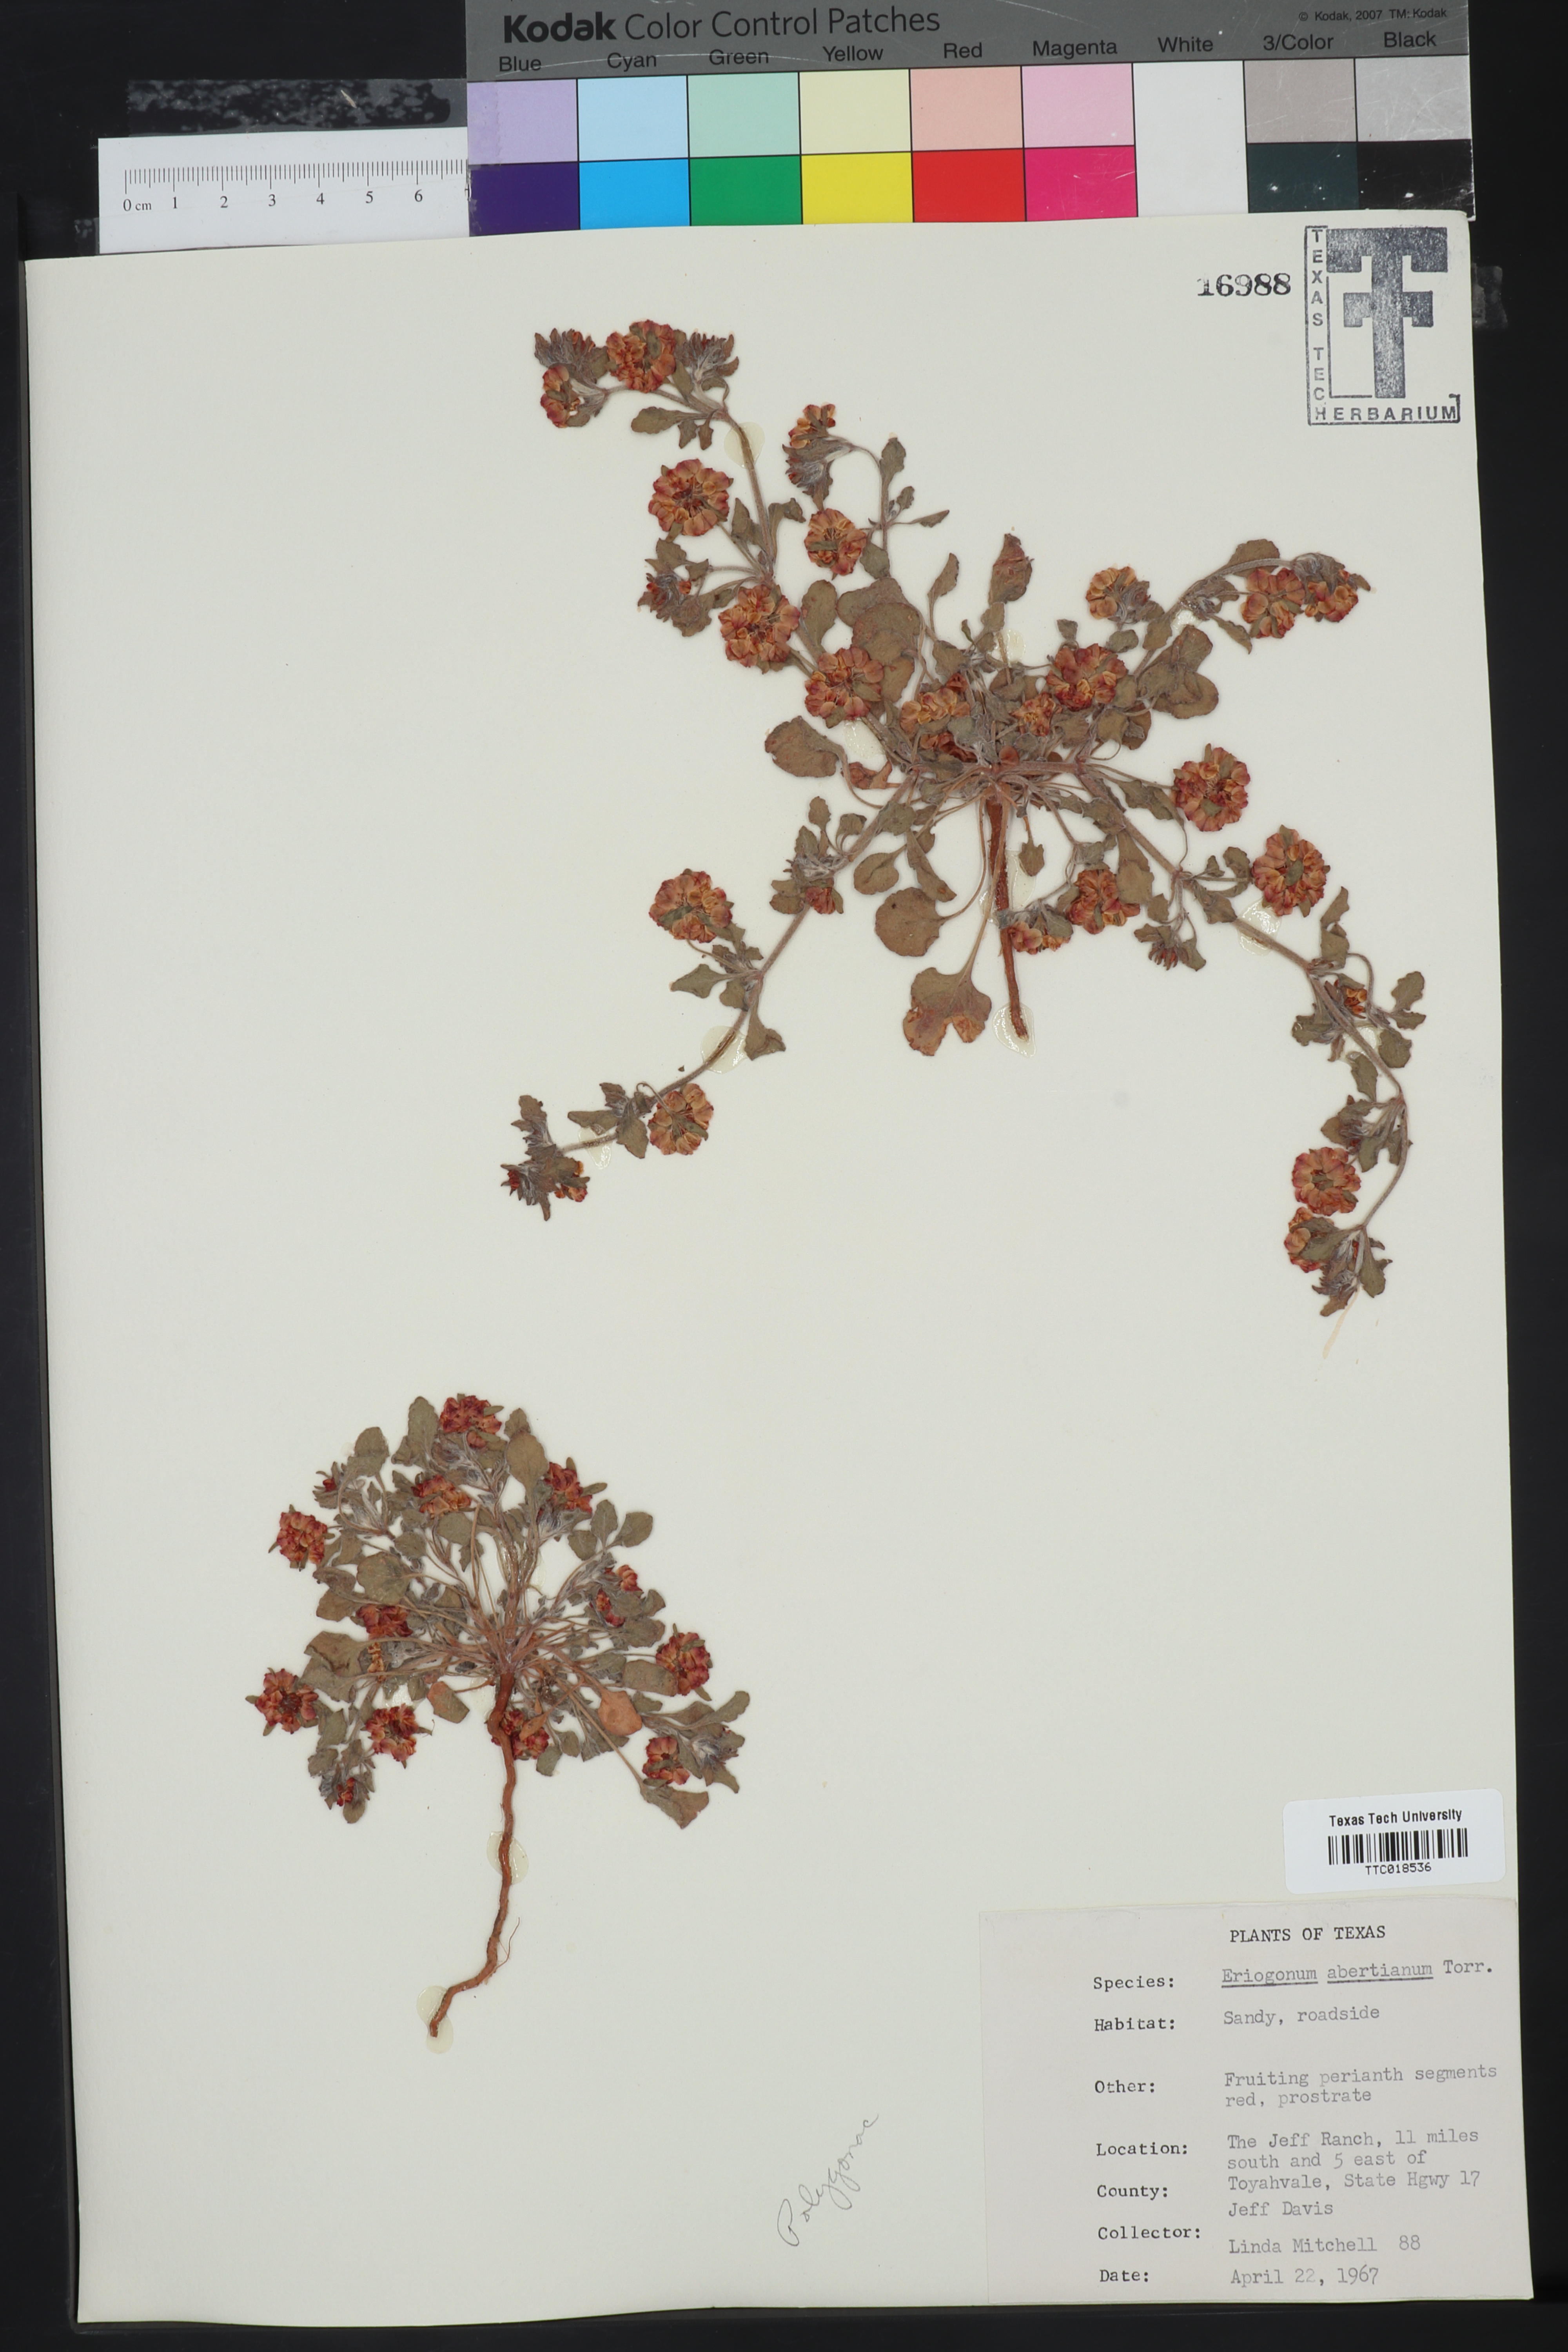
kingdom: Plantae
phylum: Tracheophyta
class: Magnoliopsida
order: Caryophyllales
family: Polygonaceae
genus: Eriogonum
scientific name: Eriogonum abertianum
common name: Abert's wild buckwheat
